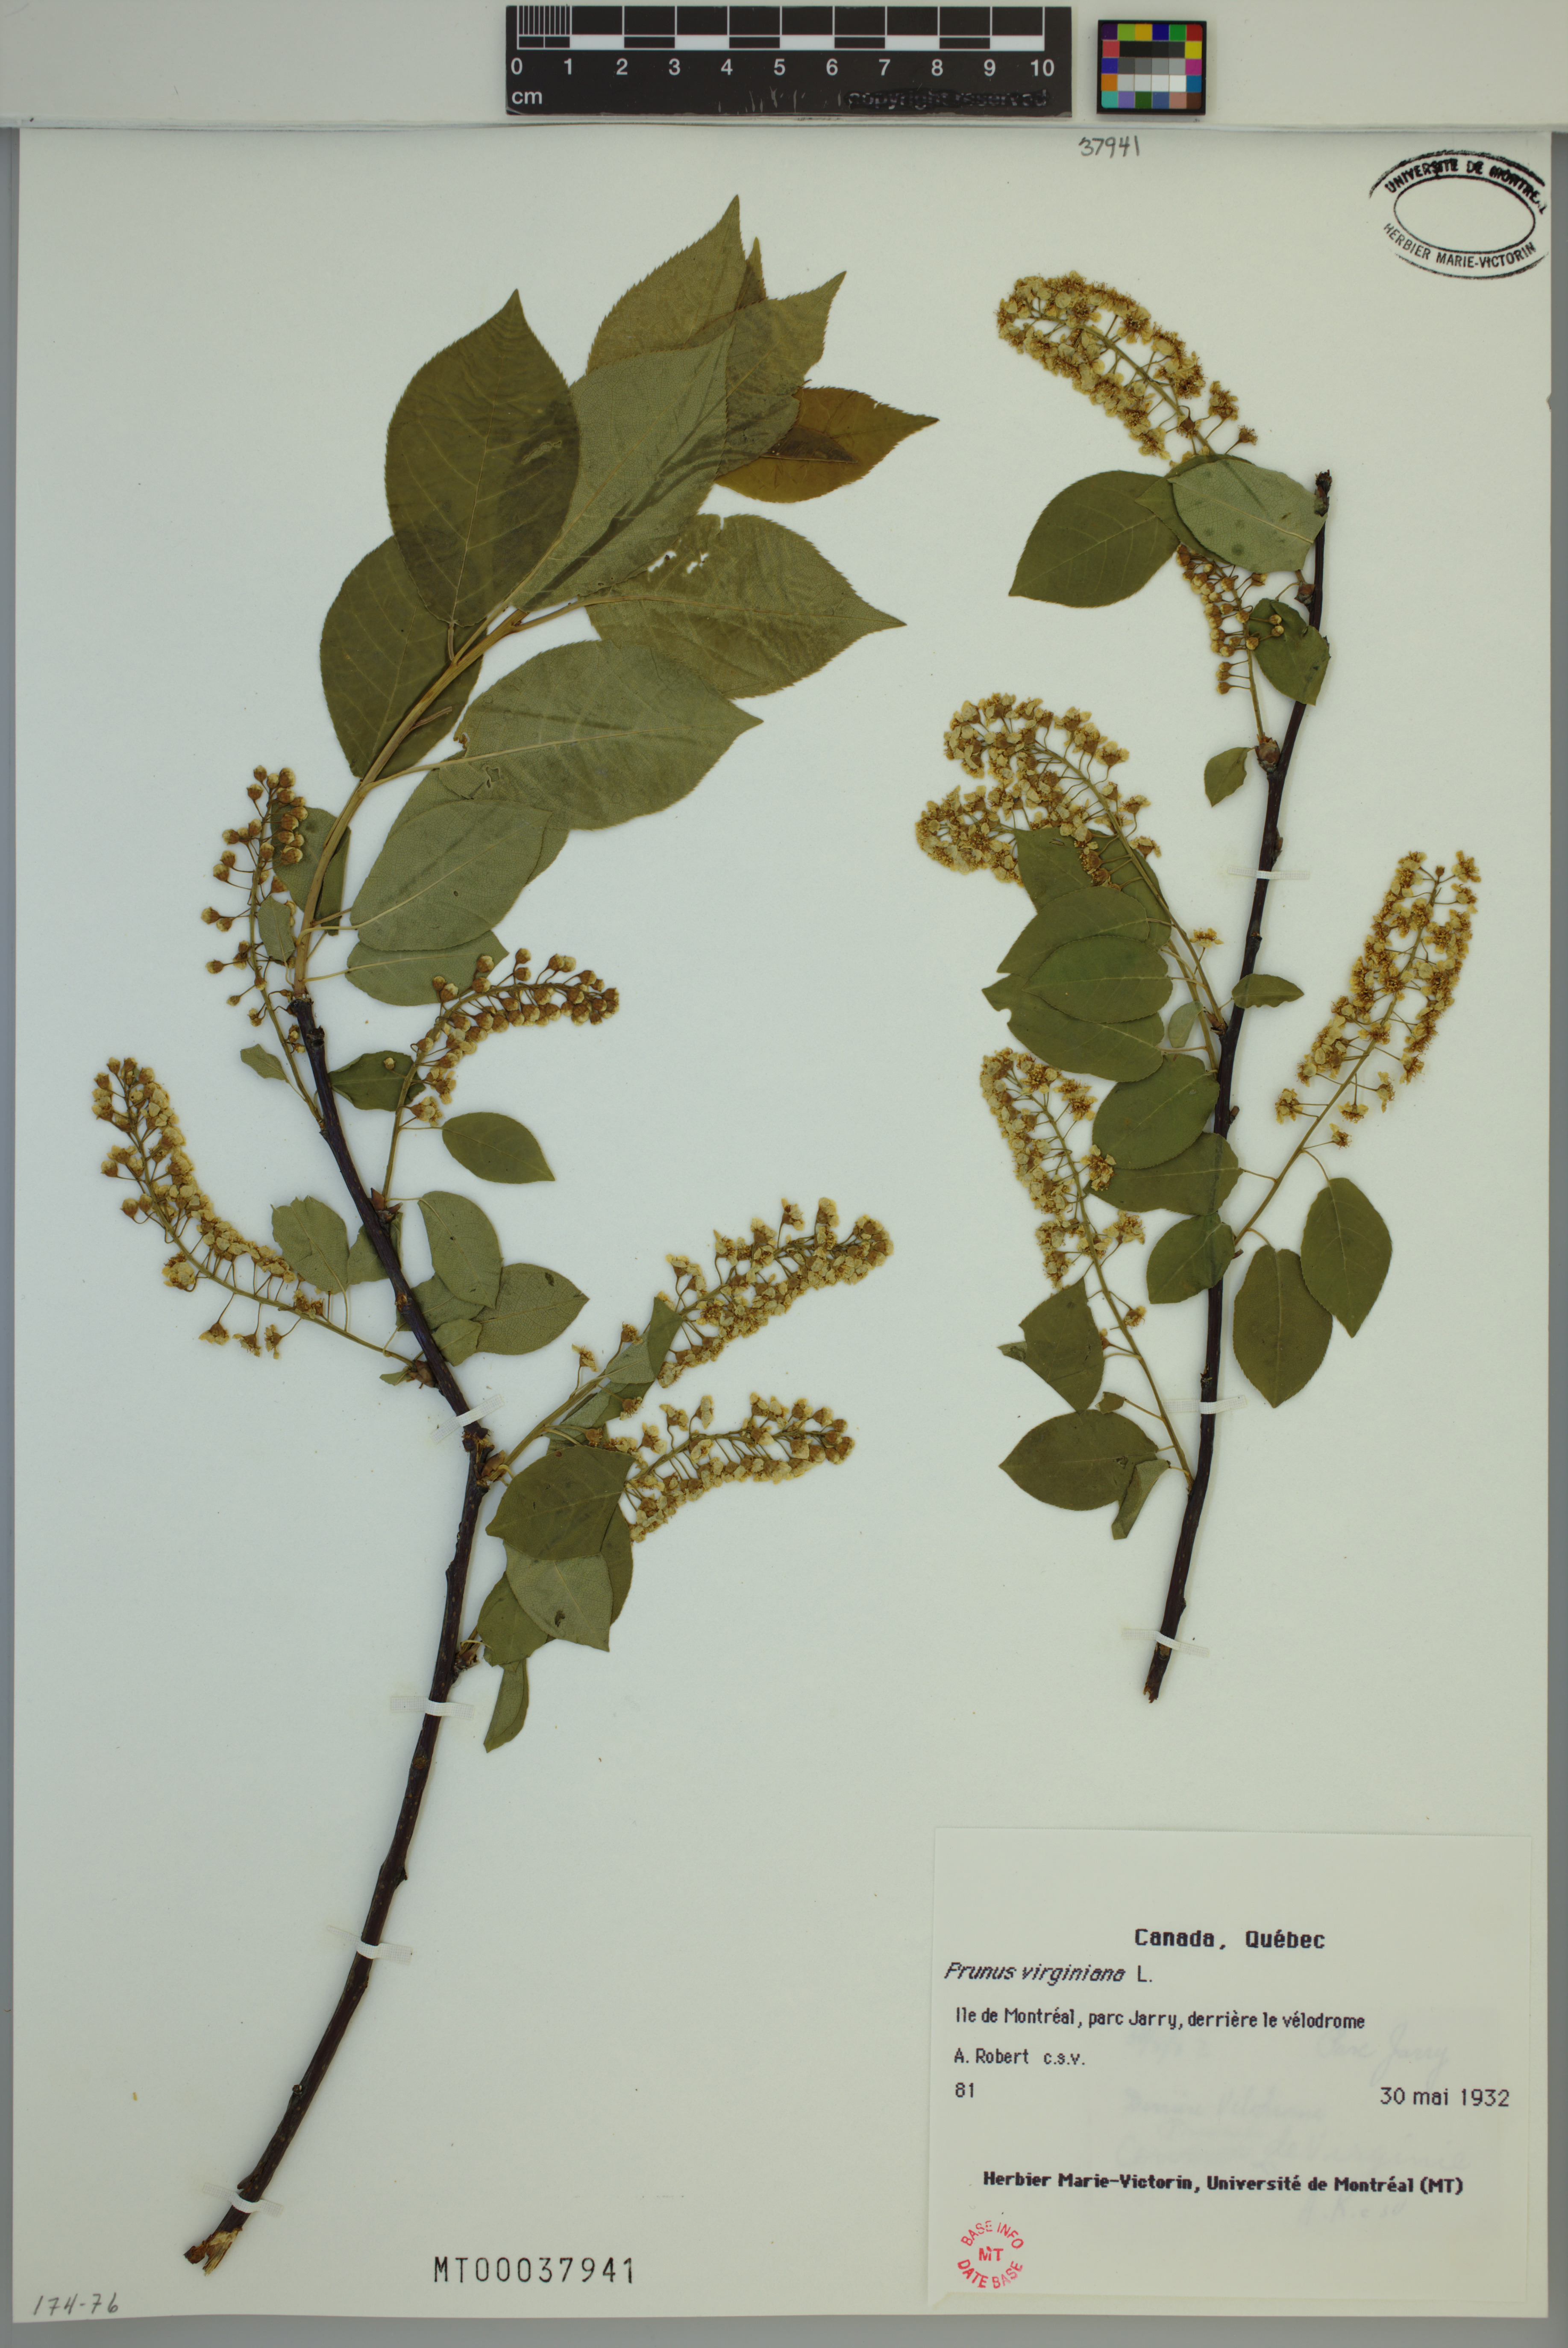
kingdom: Plantae
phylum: Tracheophyta
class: Magnoliopsida
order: Rosales
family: Rosaceae
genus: Prunus
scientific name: Prunus virginiana
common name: Chokecherry
